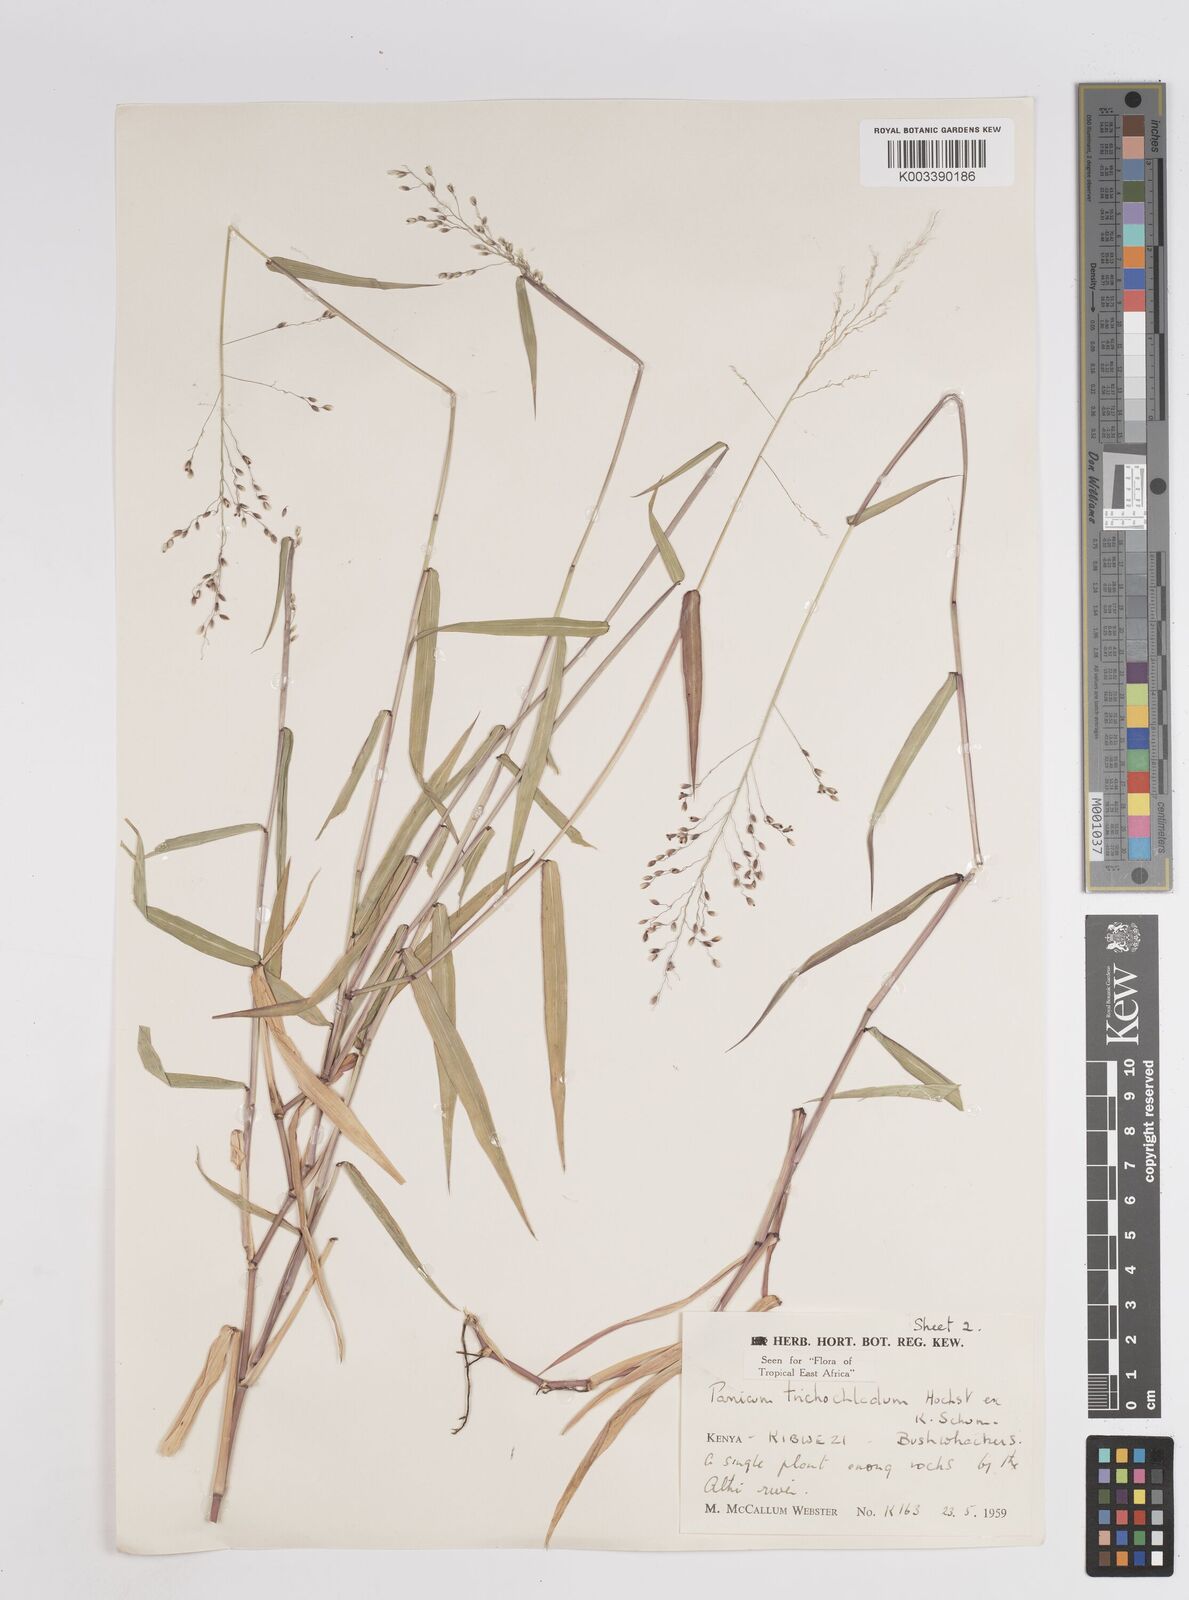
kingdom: Plantae
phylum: Tracheophyta
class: Liliopsida
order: Poales
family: Poaceae
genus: Panicum
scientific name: Panicum trichocladum
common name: Donkey grass
